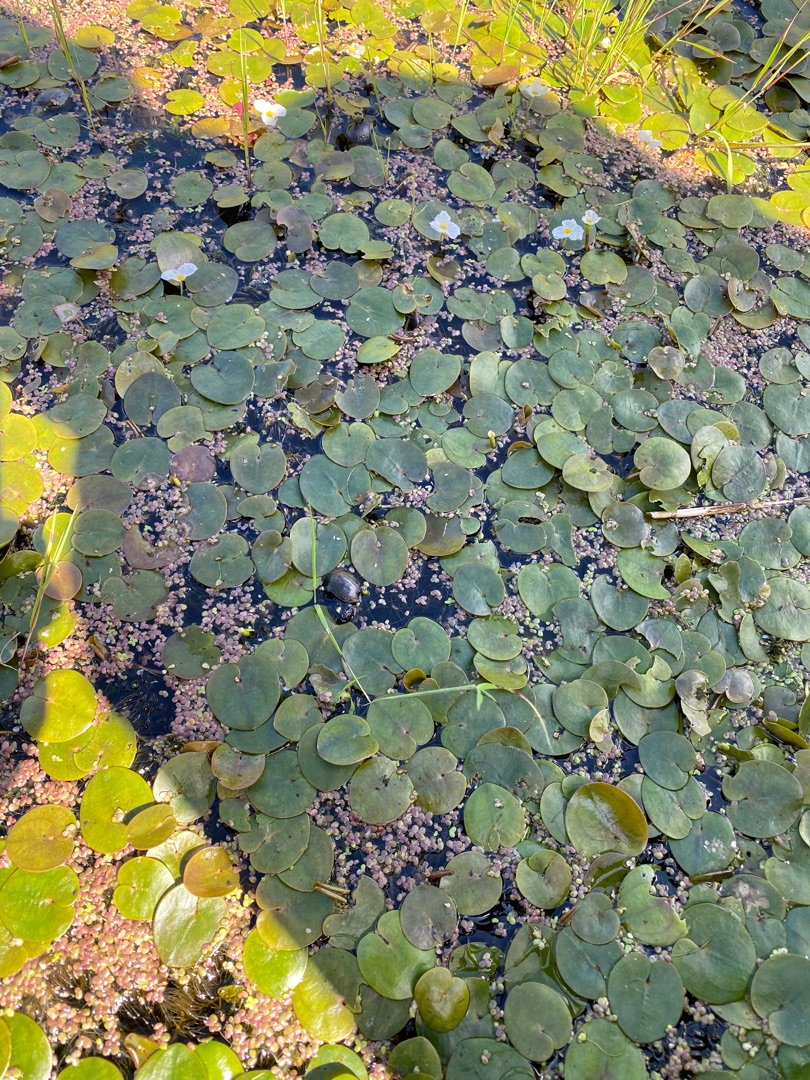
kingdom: Plantae
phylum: Tracheophyta
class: Liliopsida
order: Alismatales
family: Hydrocharitaceae
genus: Hydrocharis
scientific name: Hydrocharis morsus-ranae
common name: Frøbid
